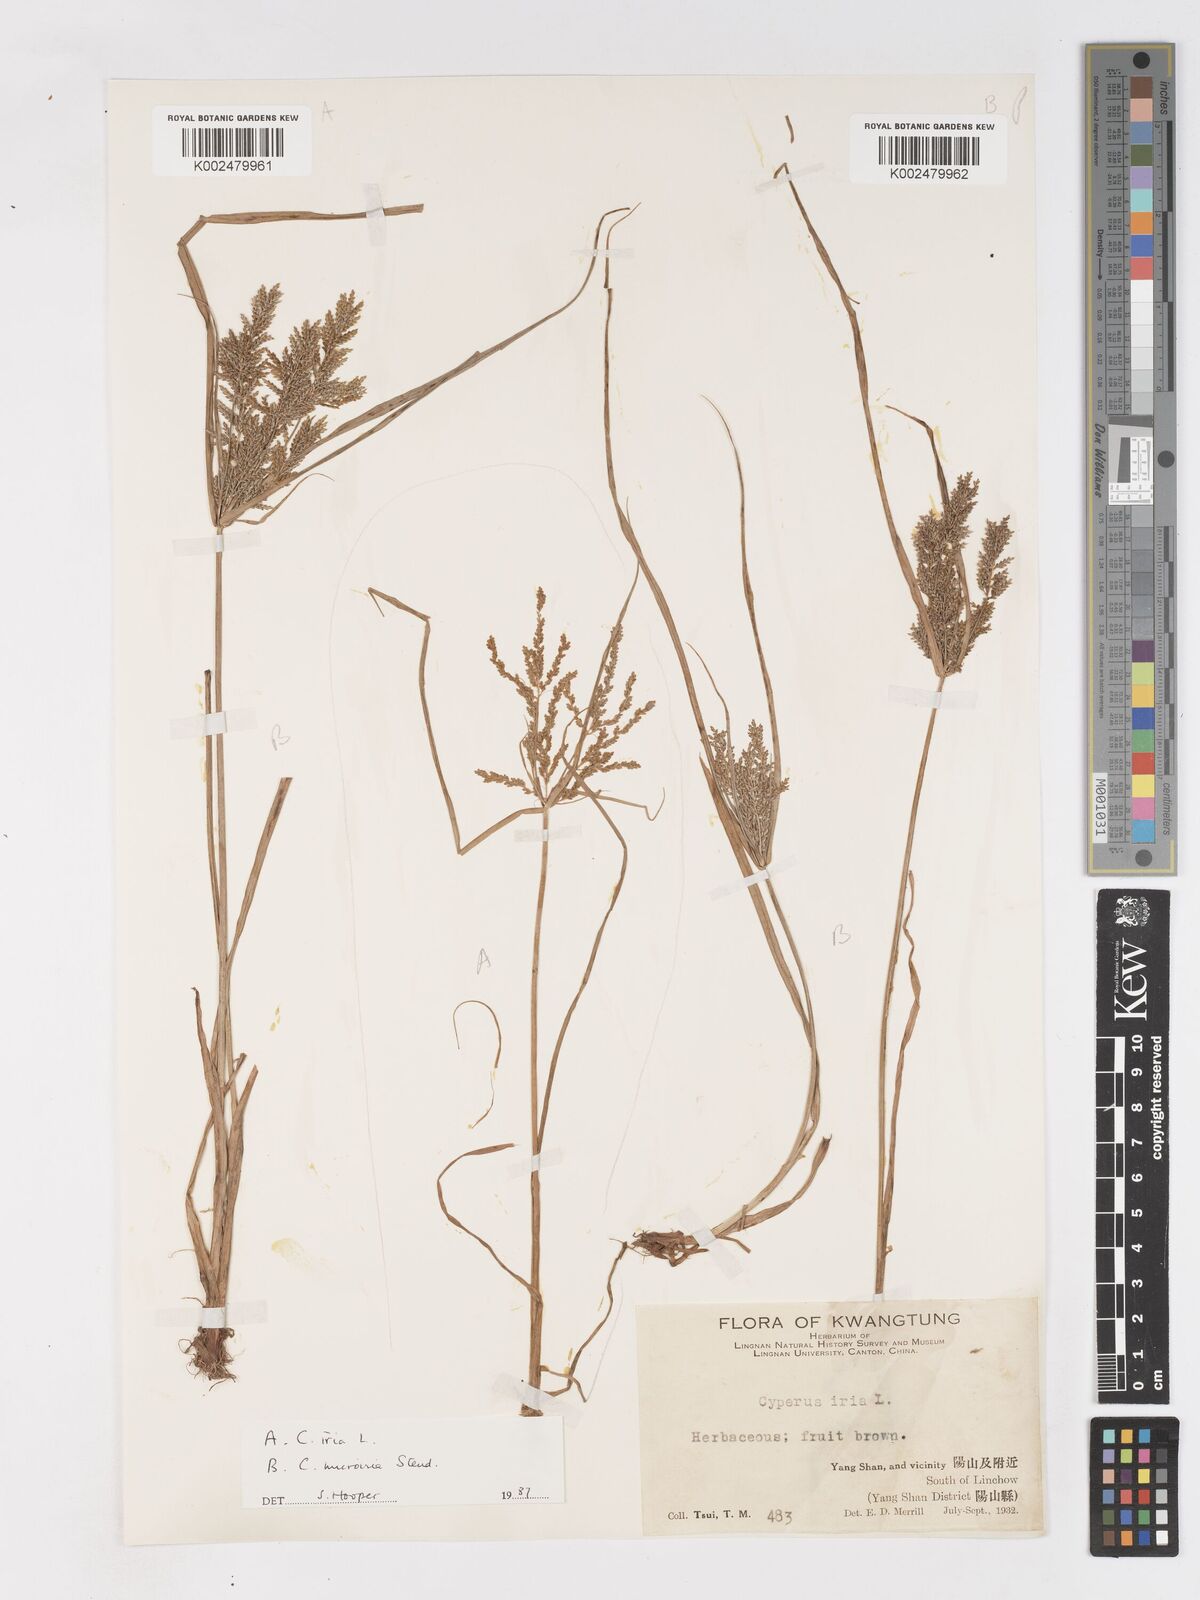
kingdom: Plantae
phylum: Tracheophyta
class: Liliopsida
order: Poales
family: Cyperaceae
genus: Cyperus
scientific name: Cyperus microiria
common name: Asian flatsedge
